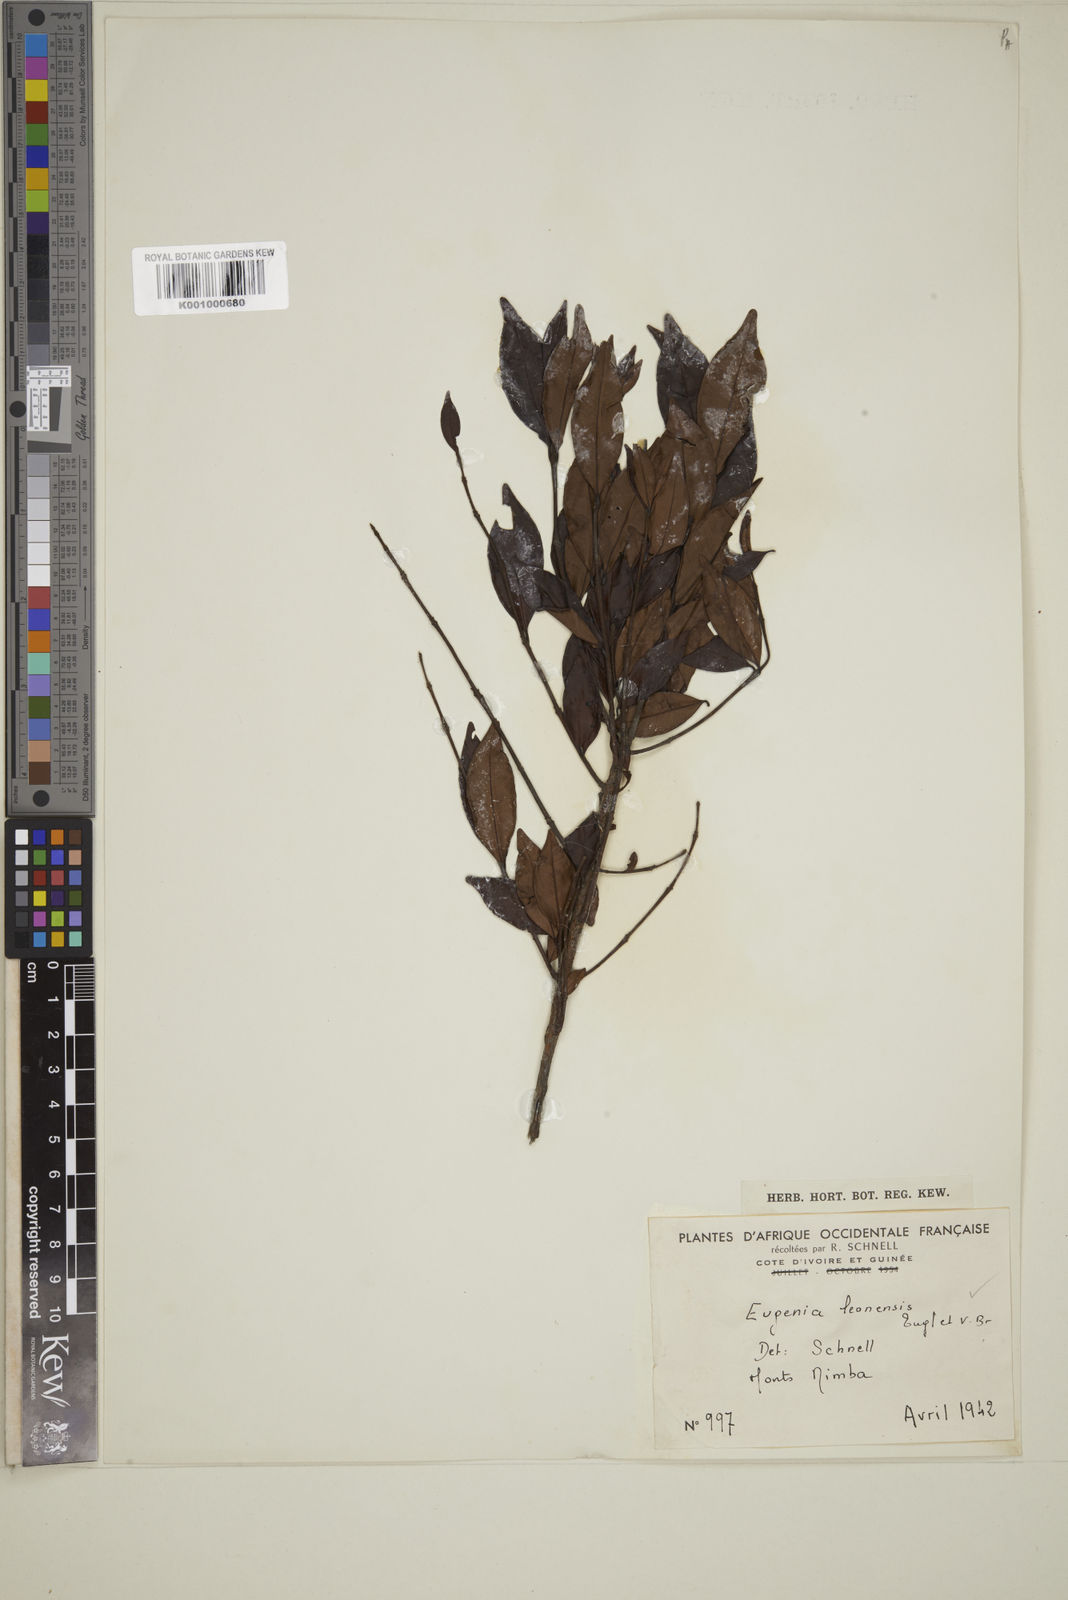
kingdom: Plantae
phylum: Tracheophyta
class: Magnoliopsida
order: Myrtales
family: Myrtaceae
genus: Eugenia
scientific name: Eugenia leonensis
